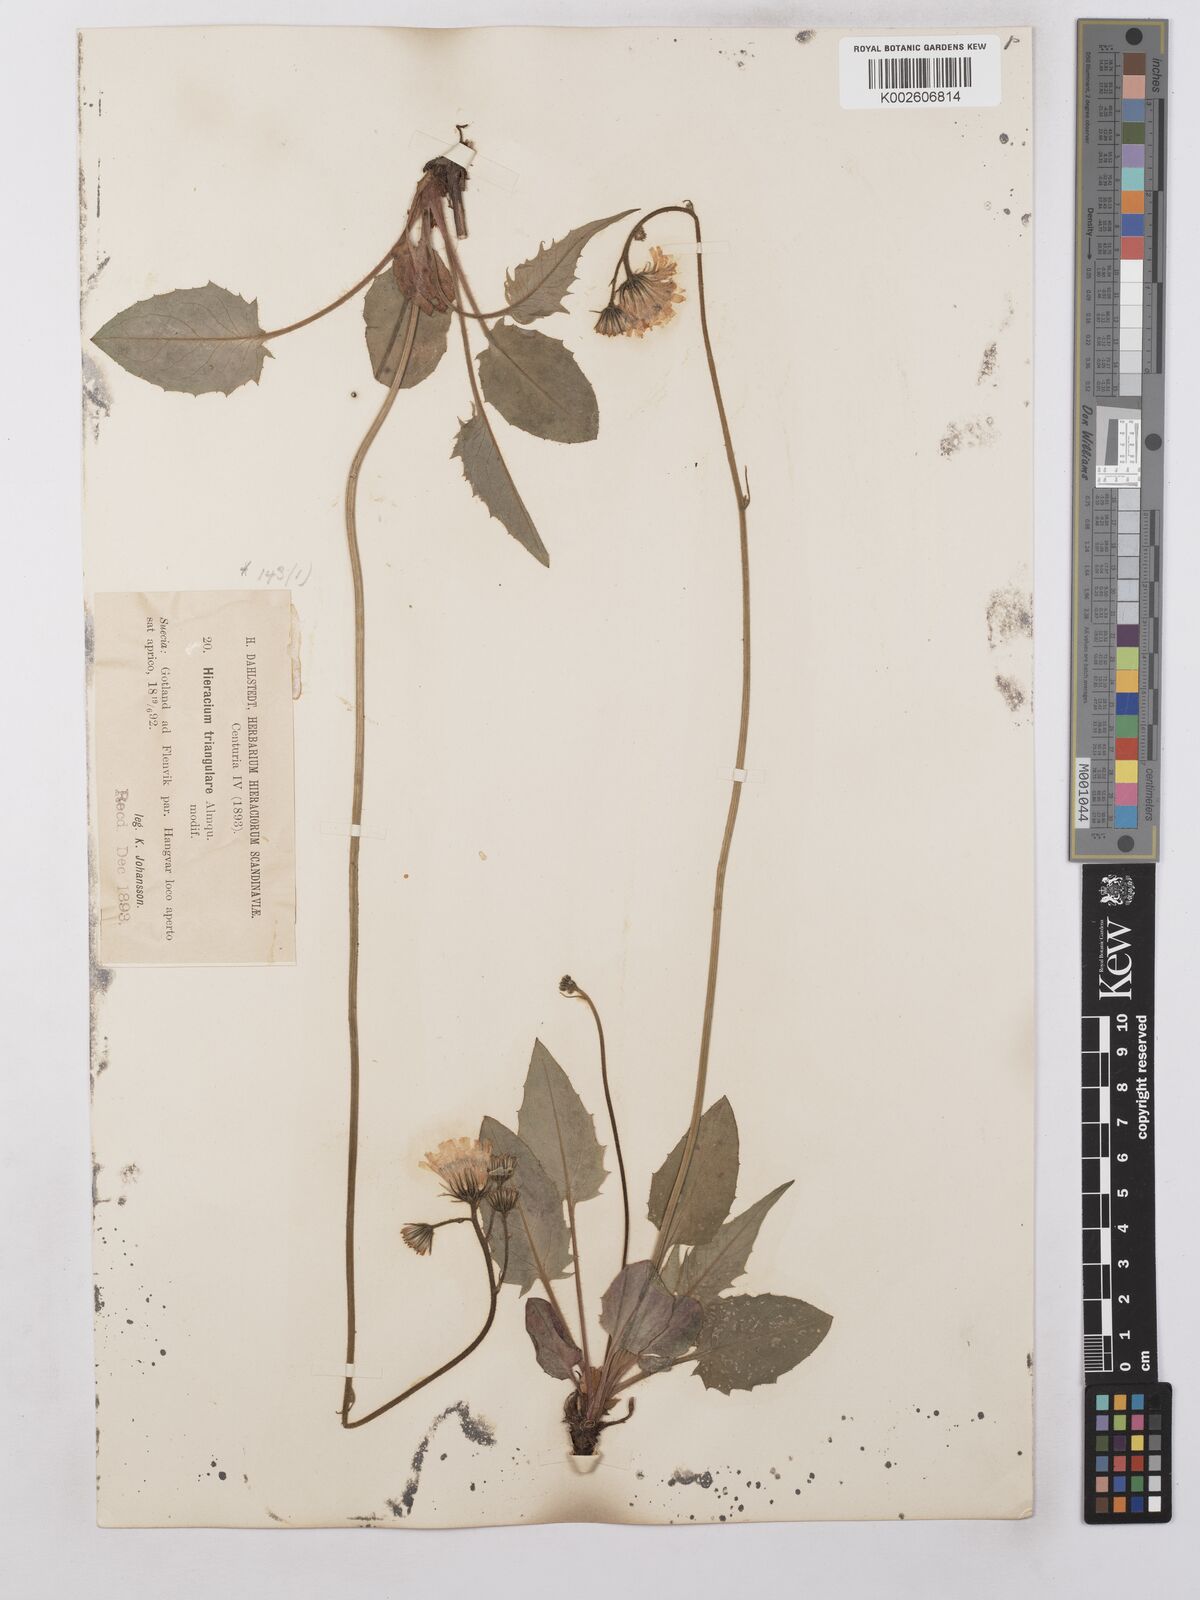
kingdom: Plantae
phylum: Tracheophyta
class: Magnoliopsida
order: Asterales
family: Asteraceae
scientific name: Asteraceae
